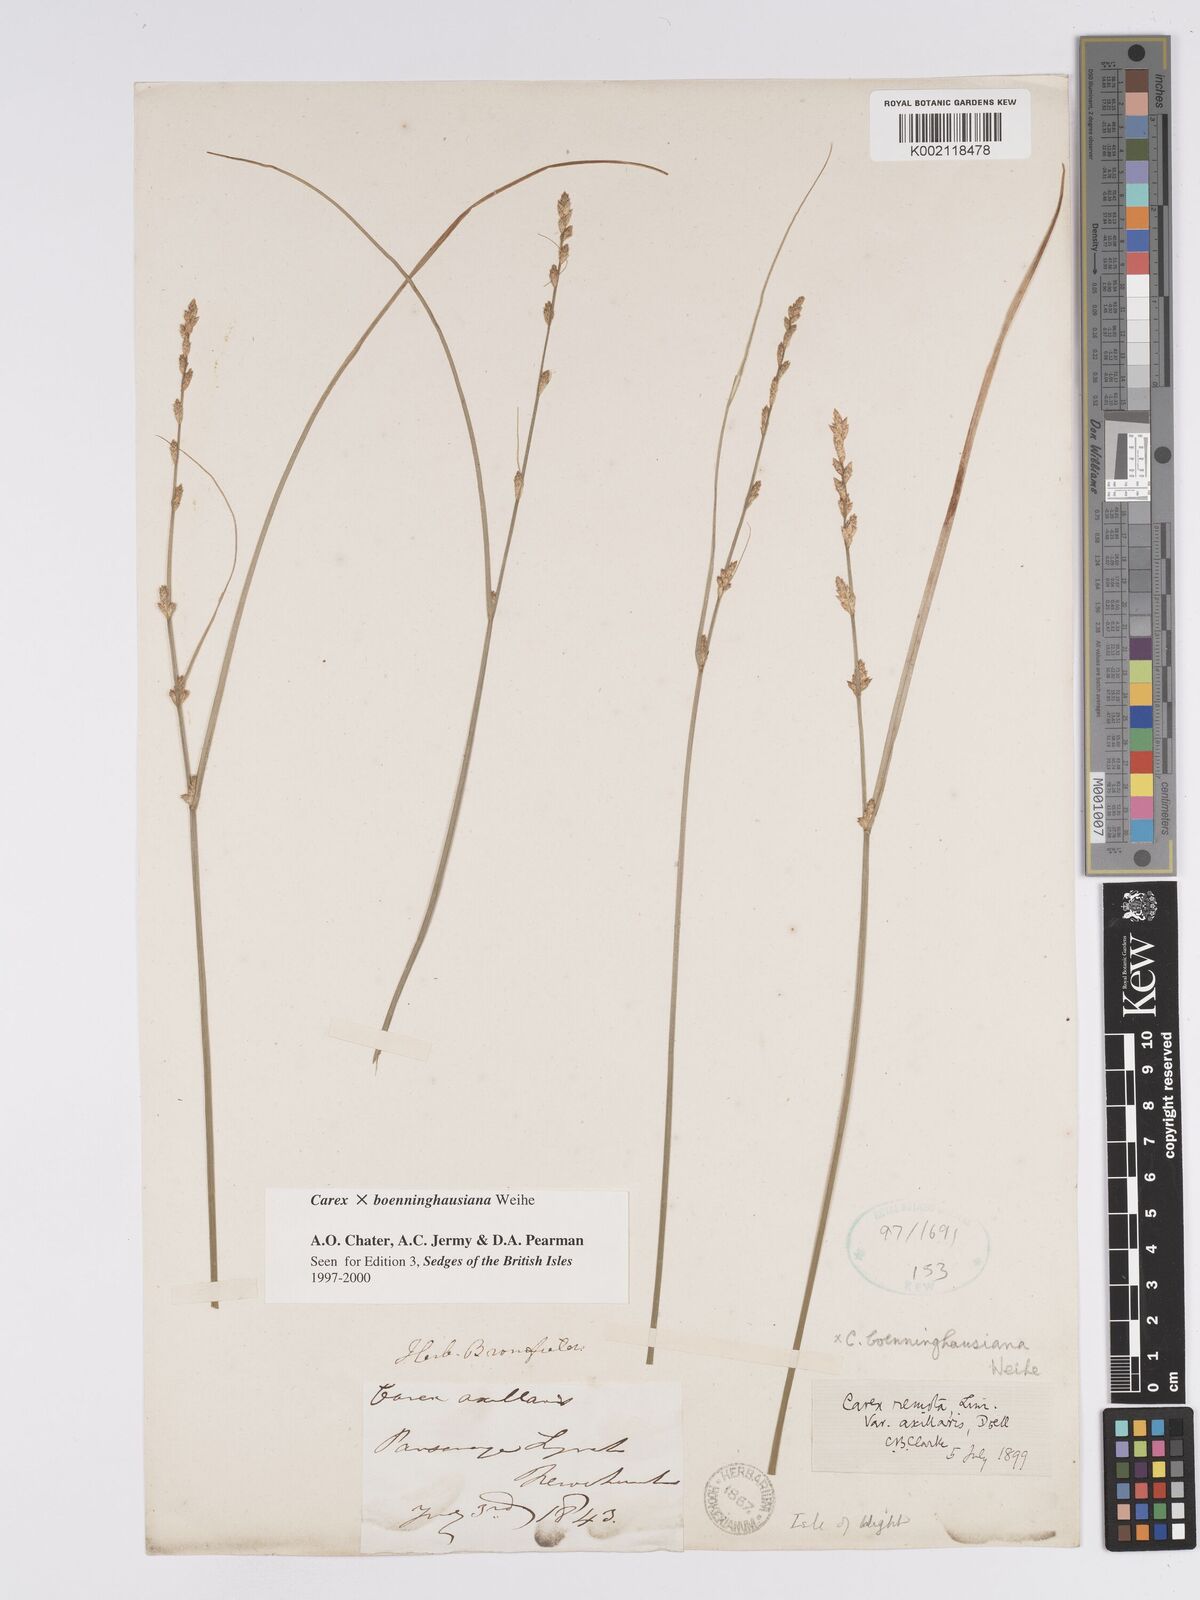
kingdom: Plantae
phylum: Tracheophyta
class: Liliopsida
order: Poales
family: Cyperaceae
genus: Carex
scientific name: Carex boenninghausiana
